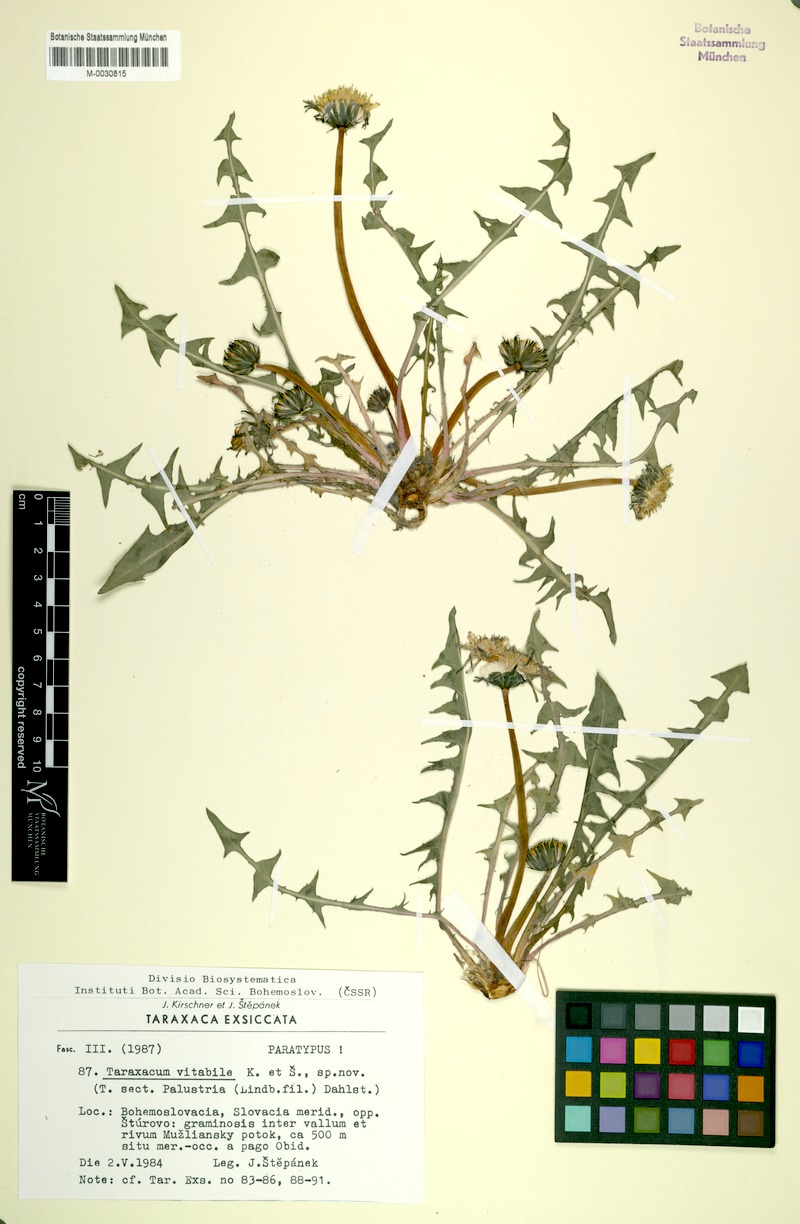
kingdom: Plantae
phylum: Tracheophyta
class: Magnoliopsida
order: Asterales
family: Asteraceae
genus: Taraxacum
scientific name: Taraxacum vindobonense
